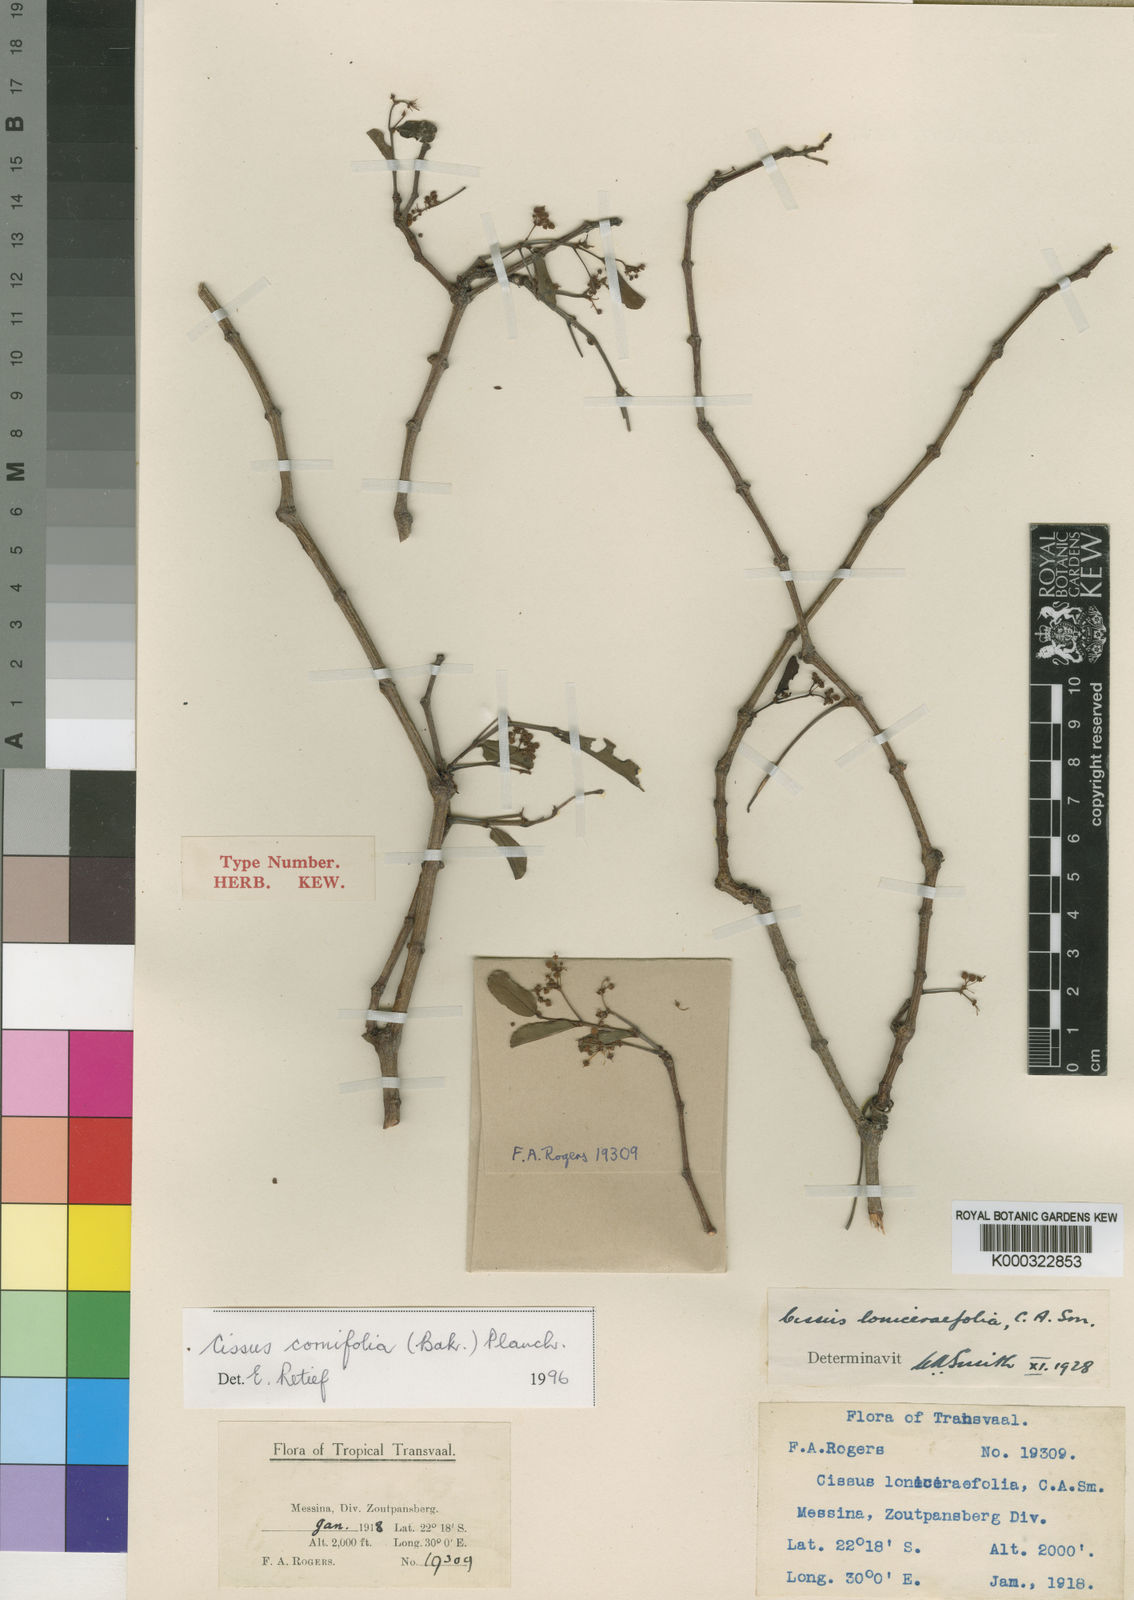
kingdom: Plantae
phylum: Tracheophyta
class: Magnoliopsida
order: Vitales
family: Vitaceae
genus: Cissus
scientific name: Cissus cornifolia
